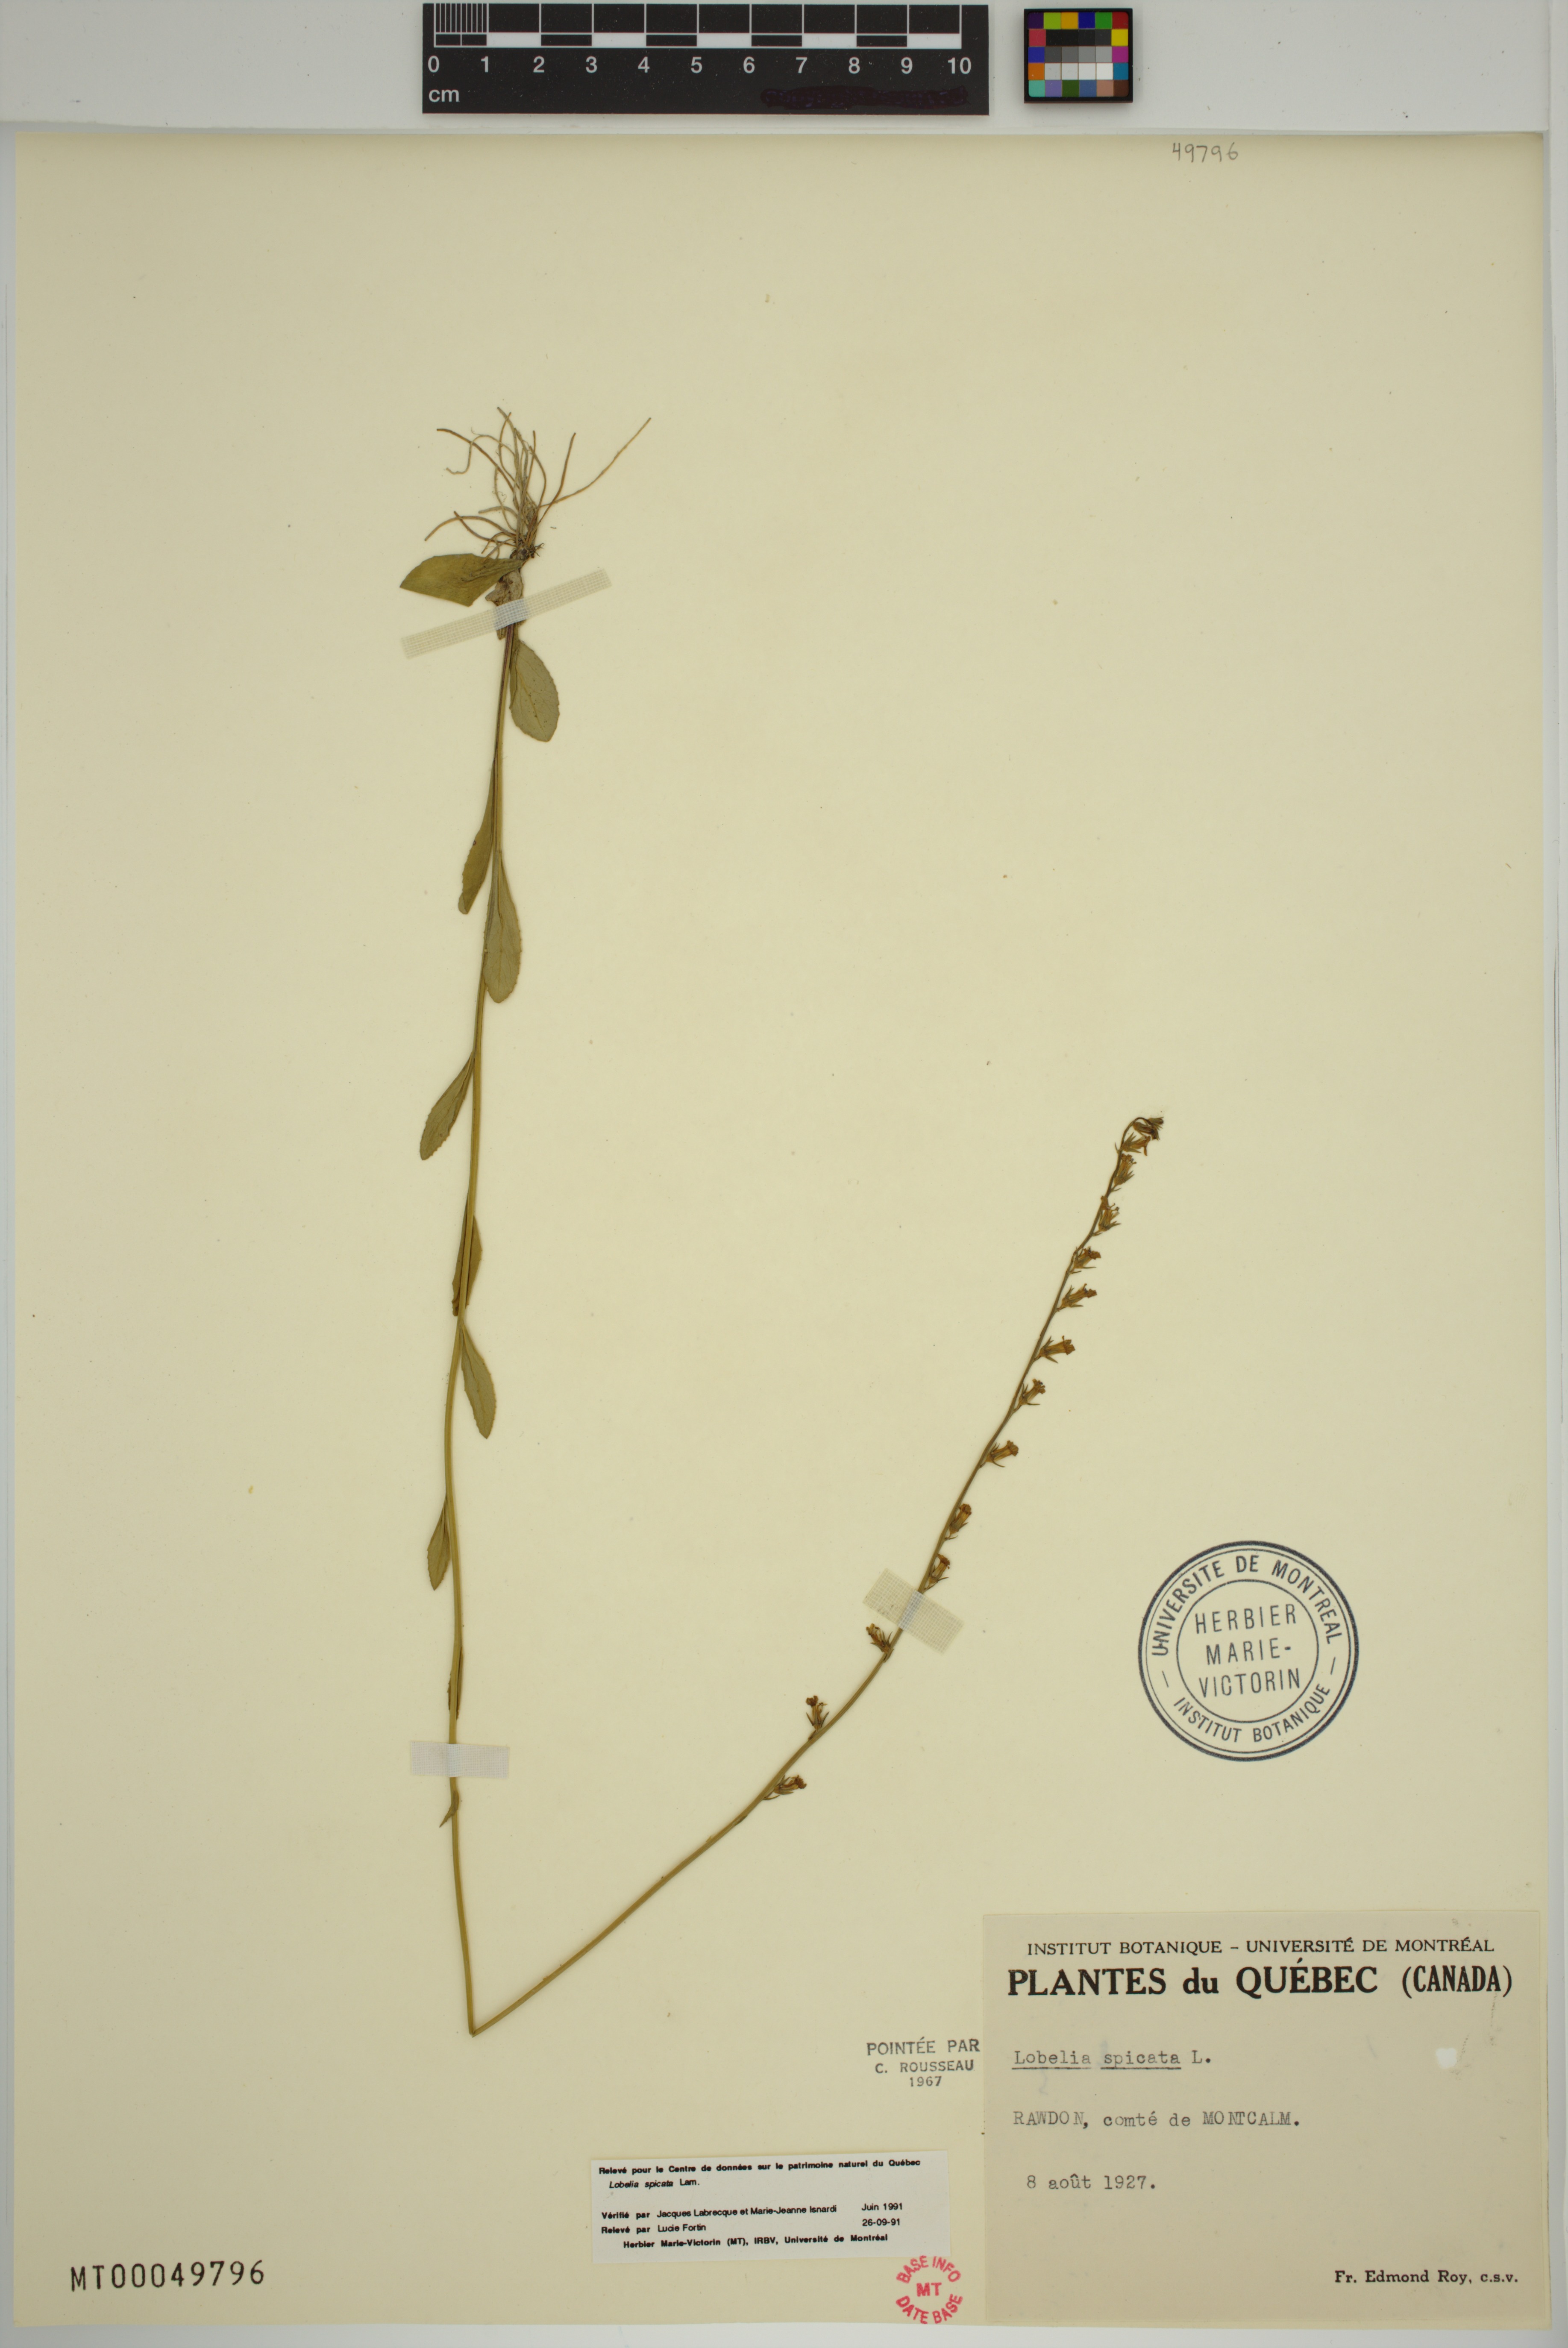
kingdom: Plantae
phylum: Tracheophyta
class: Magnoliopsida
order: Asterales
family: Campanulaceae
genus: Lobelia
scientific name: Lobelia spicata
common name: Pale-spike lobelia
